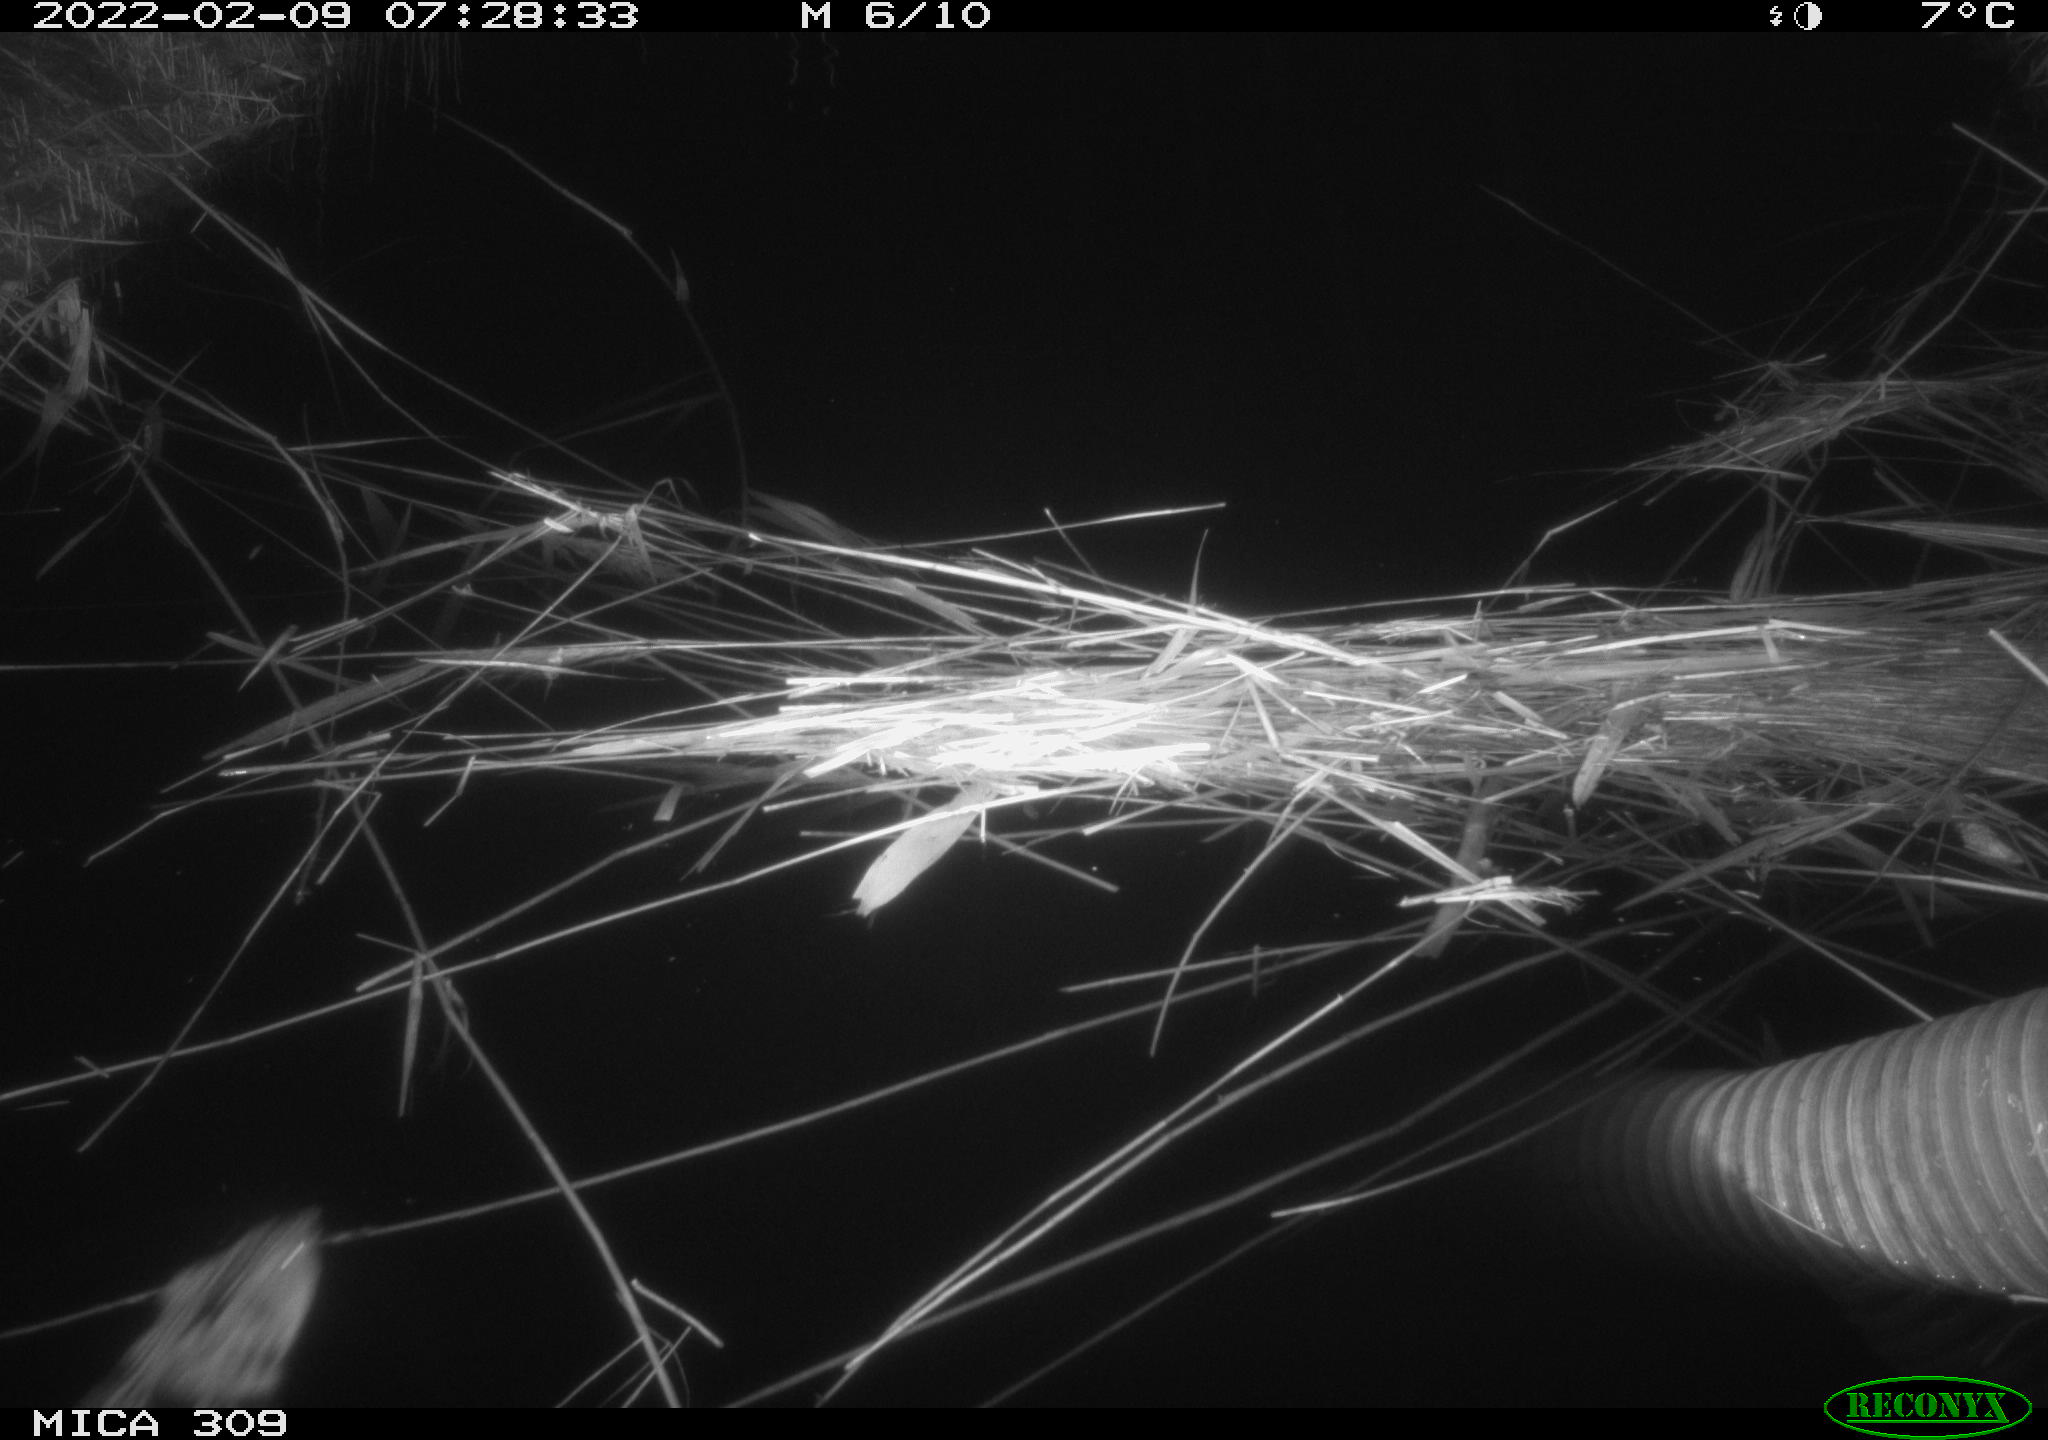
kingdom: Animalia
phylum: Chordata
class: Mammalia
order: Rodentia
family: Cricetidae
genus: Ondatra
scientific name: Ondatra zibethicus
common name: Muskrat
